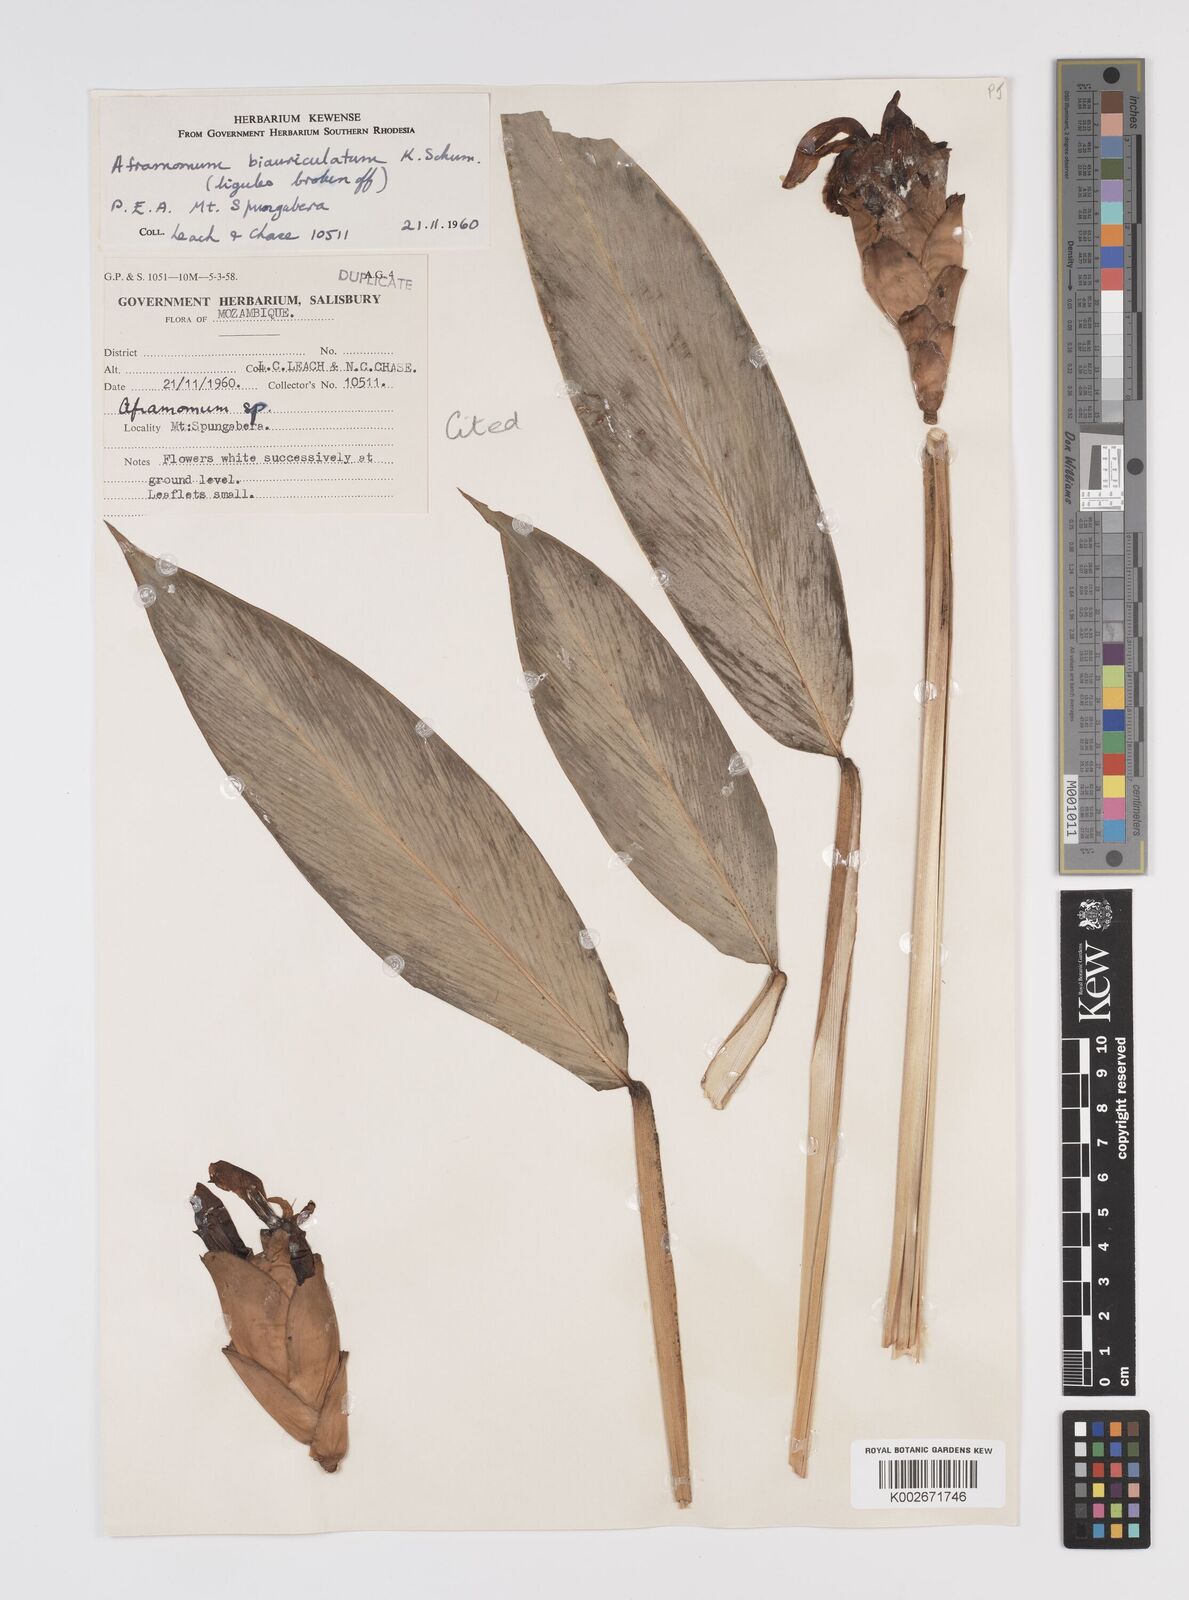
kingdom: Plantae
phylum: Tracheophyta
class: Liliopsida
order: Zingiberales
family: Zingiberaceae
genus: Aframomum
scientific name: Aframomum albiflorum
